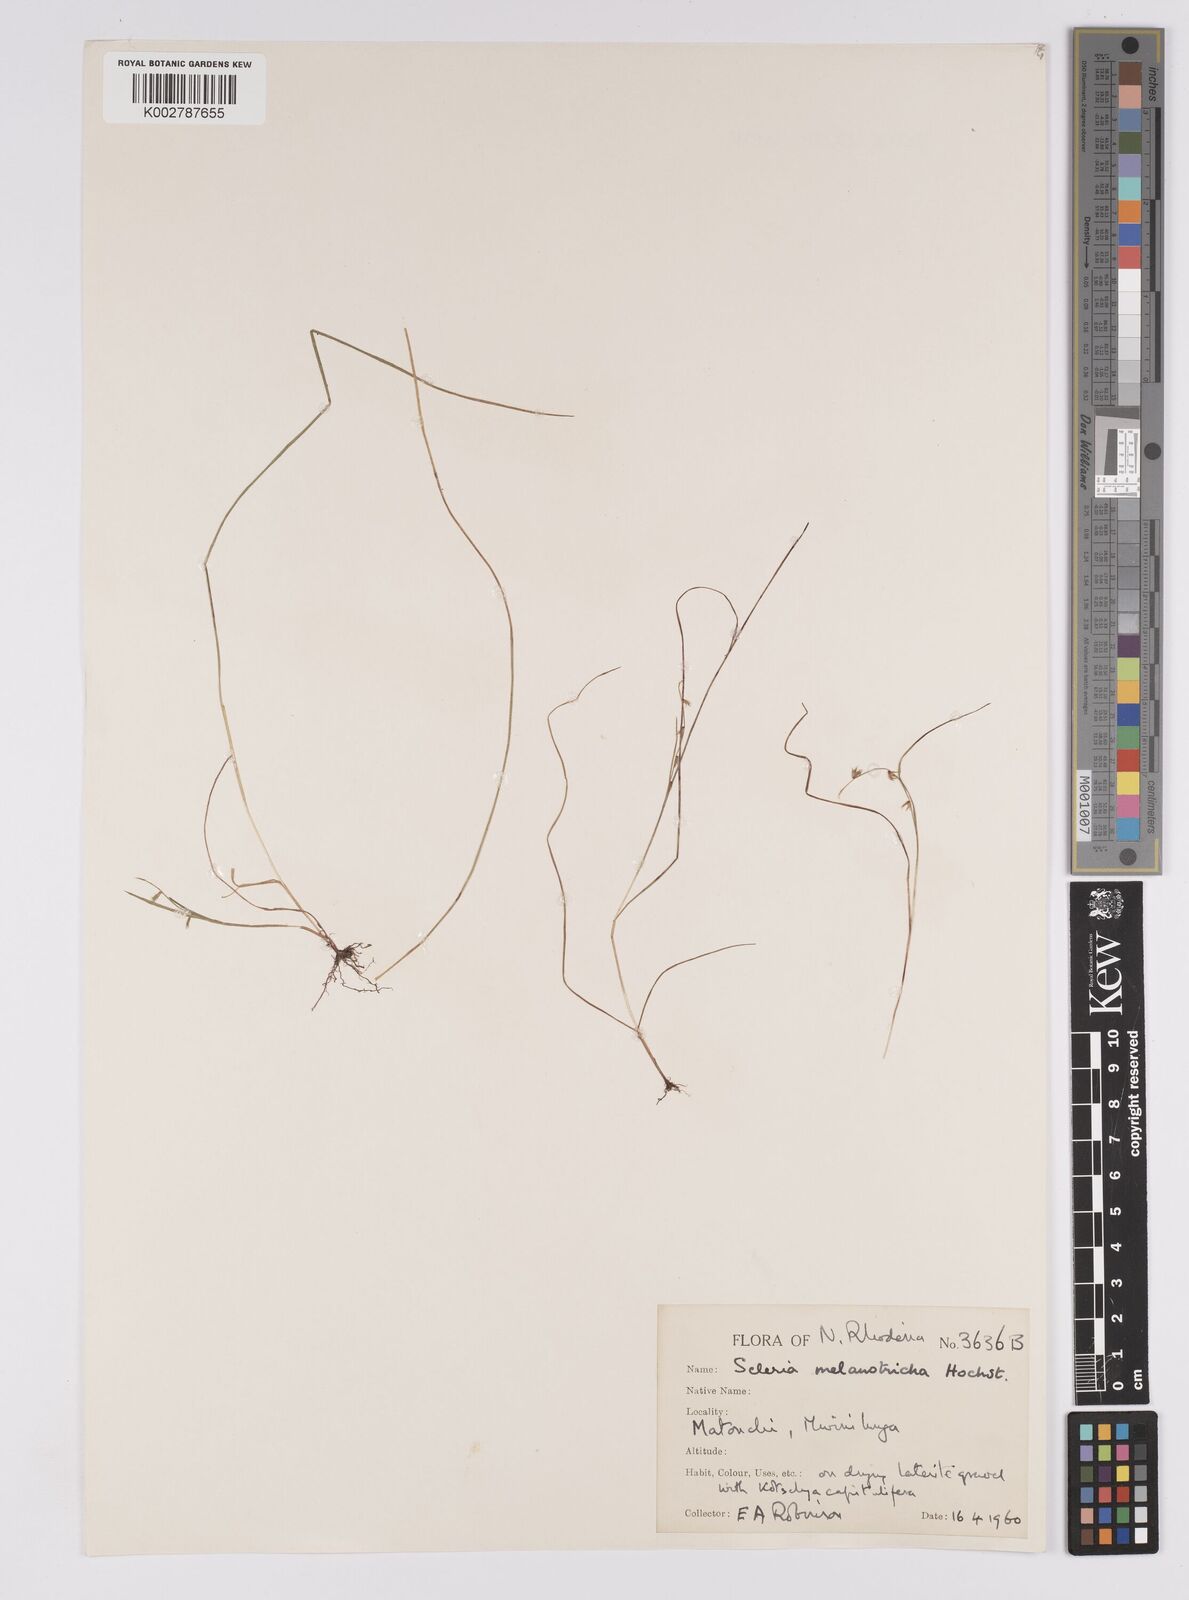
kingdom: Plantae
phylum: Tracheophyta
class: Liliopsida
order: Poales
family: Cyperaceae
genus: Scleria
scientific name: Scleria melanotricha
